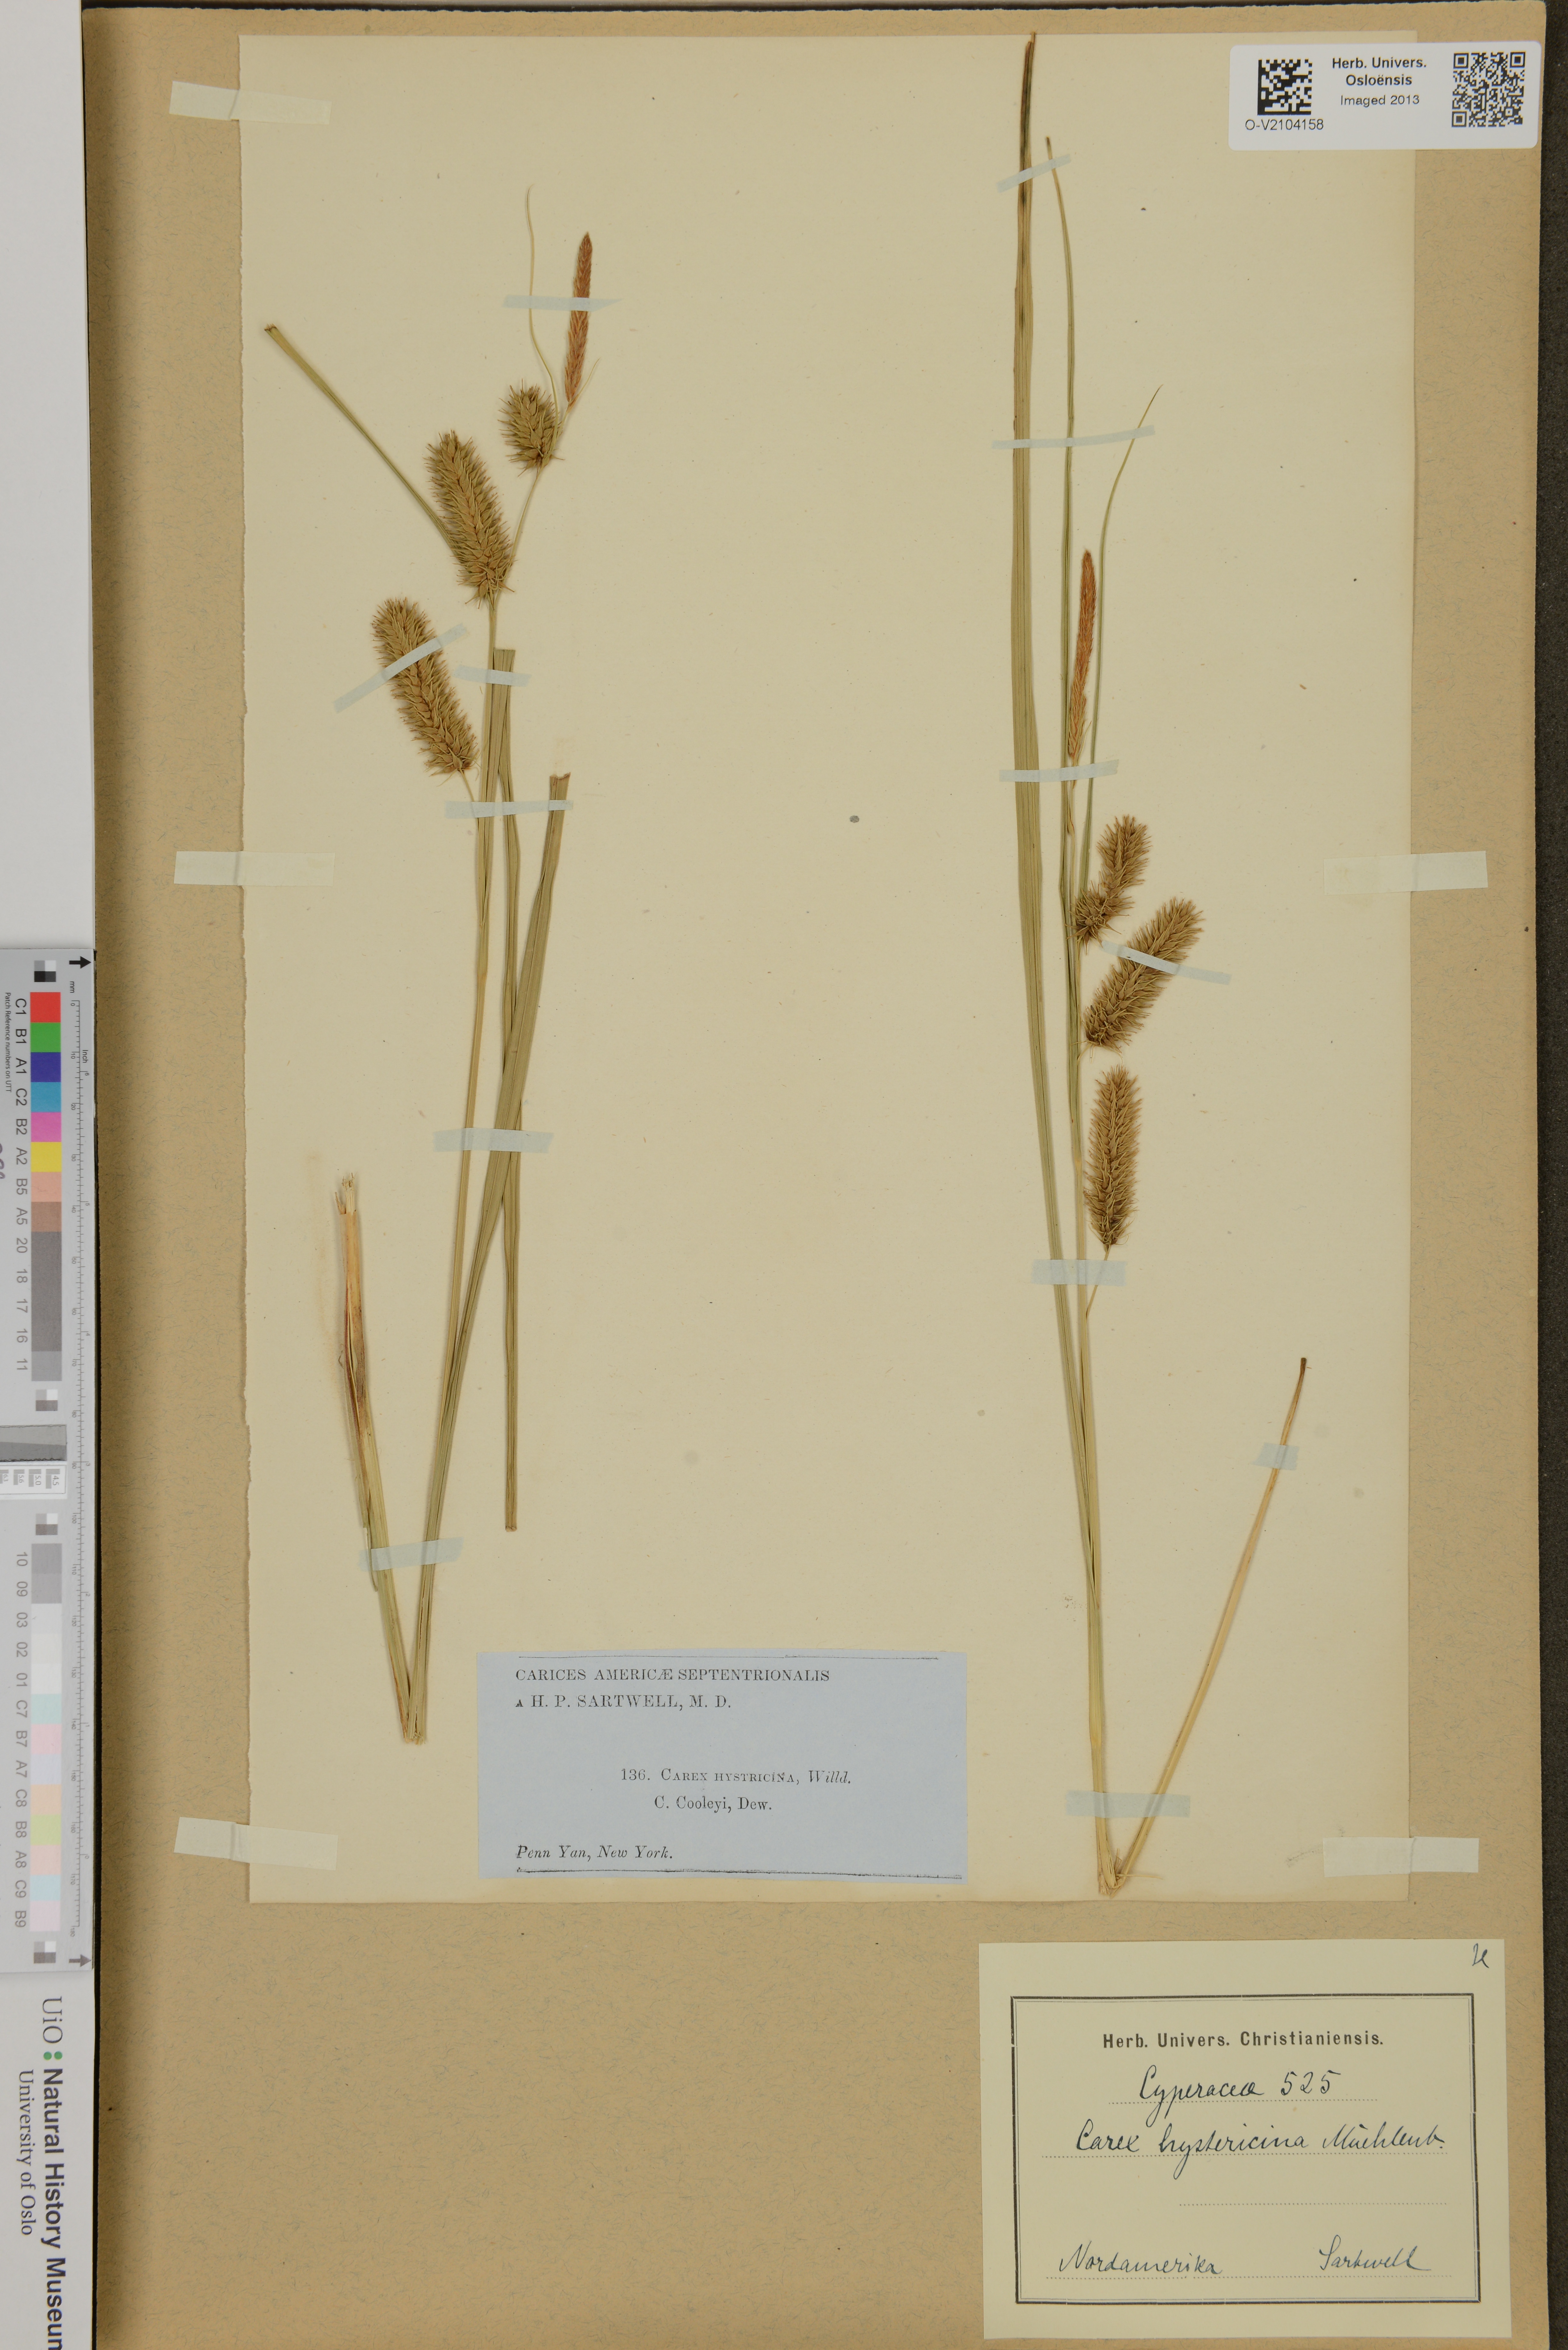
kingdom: Plantae
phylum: Tracheophyta
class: Liliopsida
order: Poales
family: Cyperaceae
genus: Carex
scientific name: Carex hystericina
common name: Bottlebrush sedge
